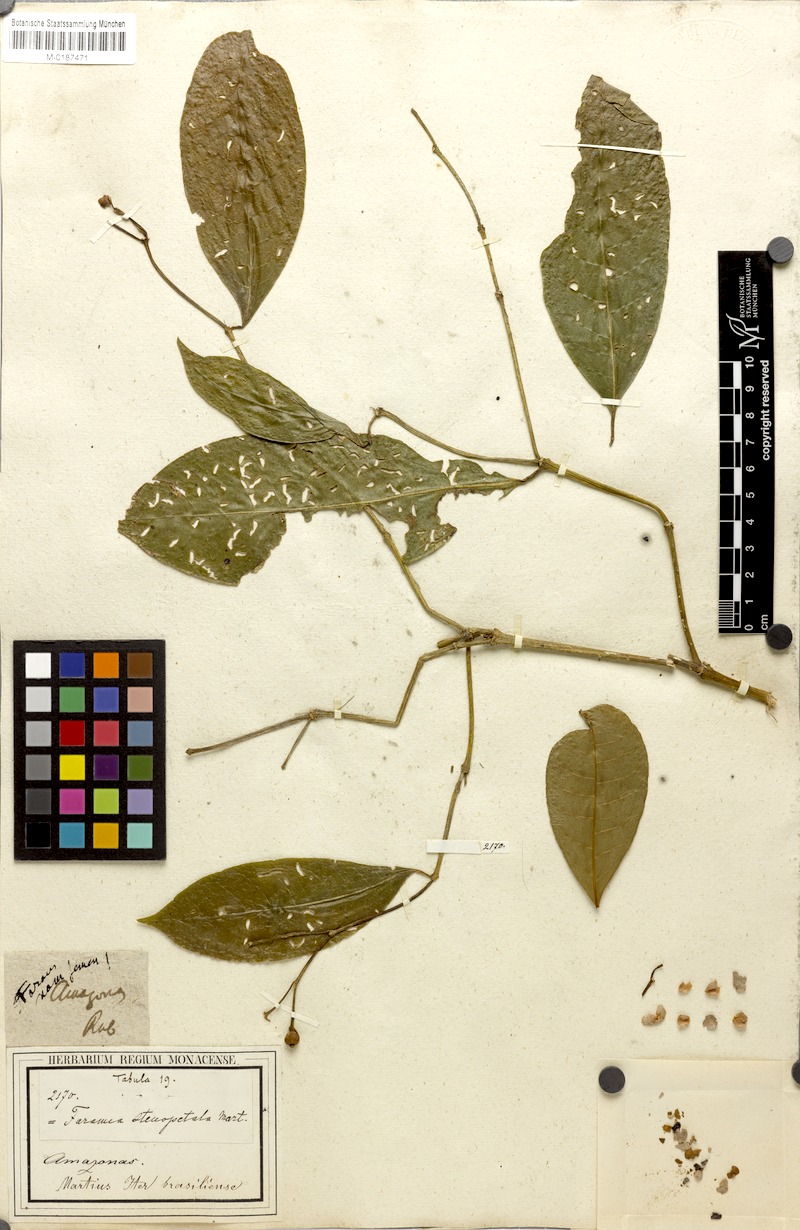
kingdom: Plantae
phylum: Tracheophyta
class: Magnoliopsida
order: Gentianales
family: Rubiaceae
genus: Faramea
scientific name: Faramea stenopetala
